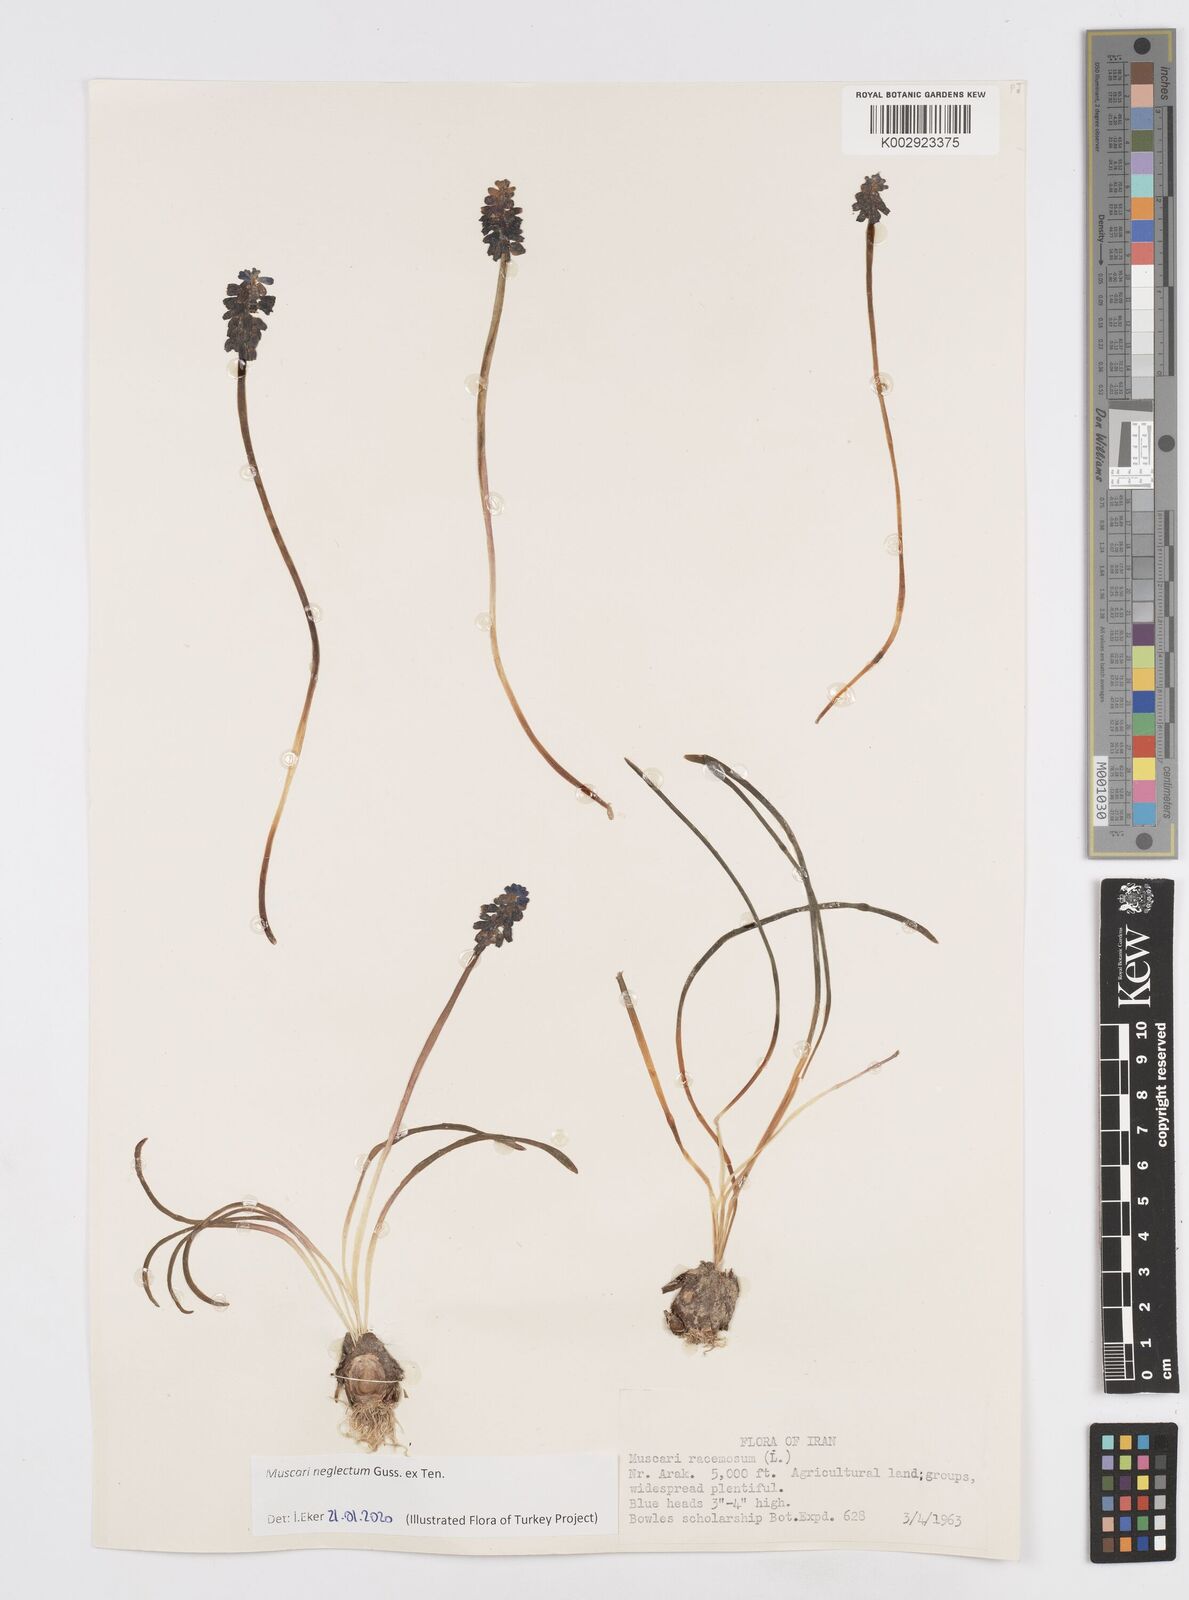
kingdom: Plantae
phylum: Tracheophyta
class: Liliopsida
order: Asparagales
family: Asparagaceae
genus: Muscari
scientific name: Muscari neglectum
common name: Grape-hyacinth
